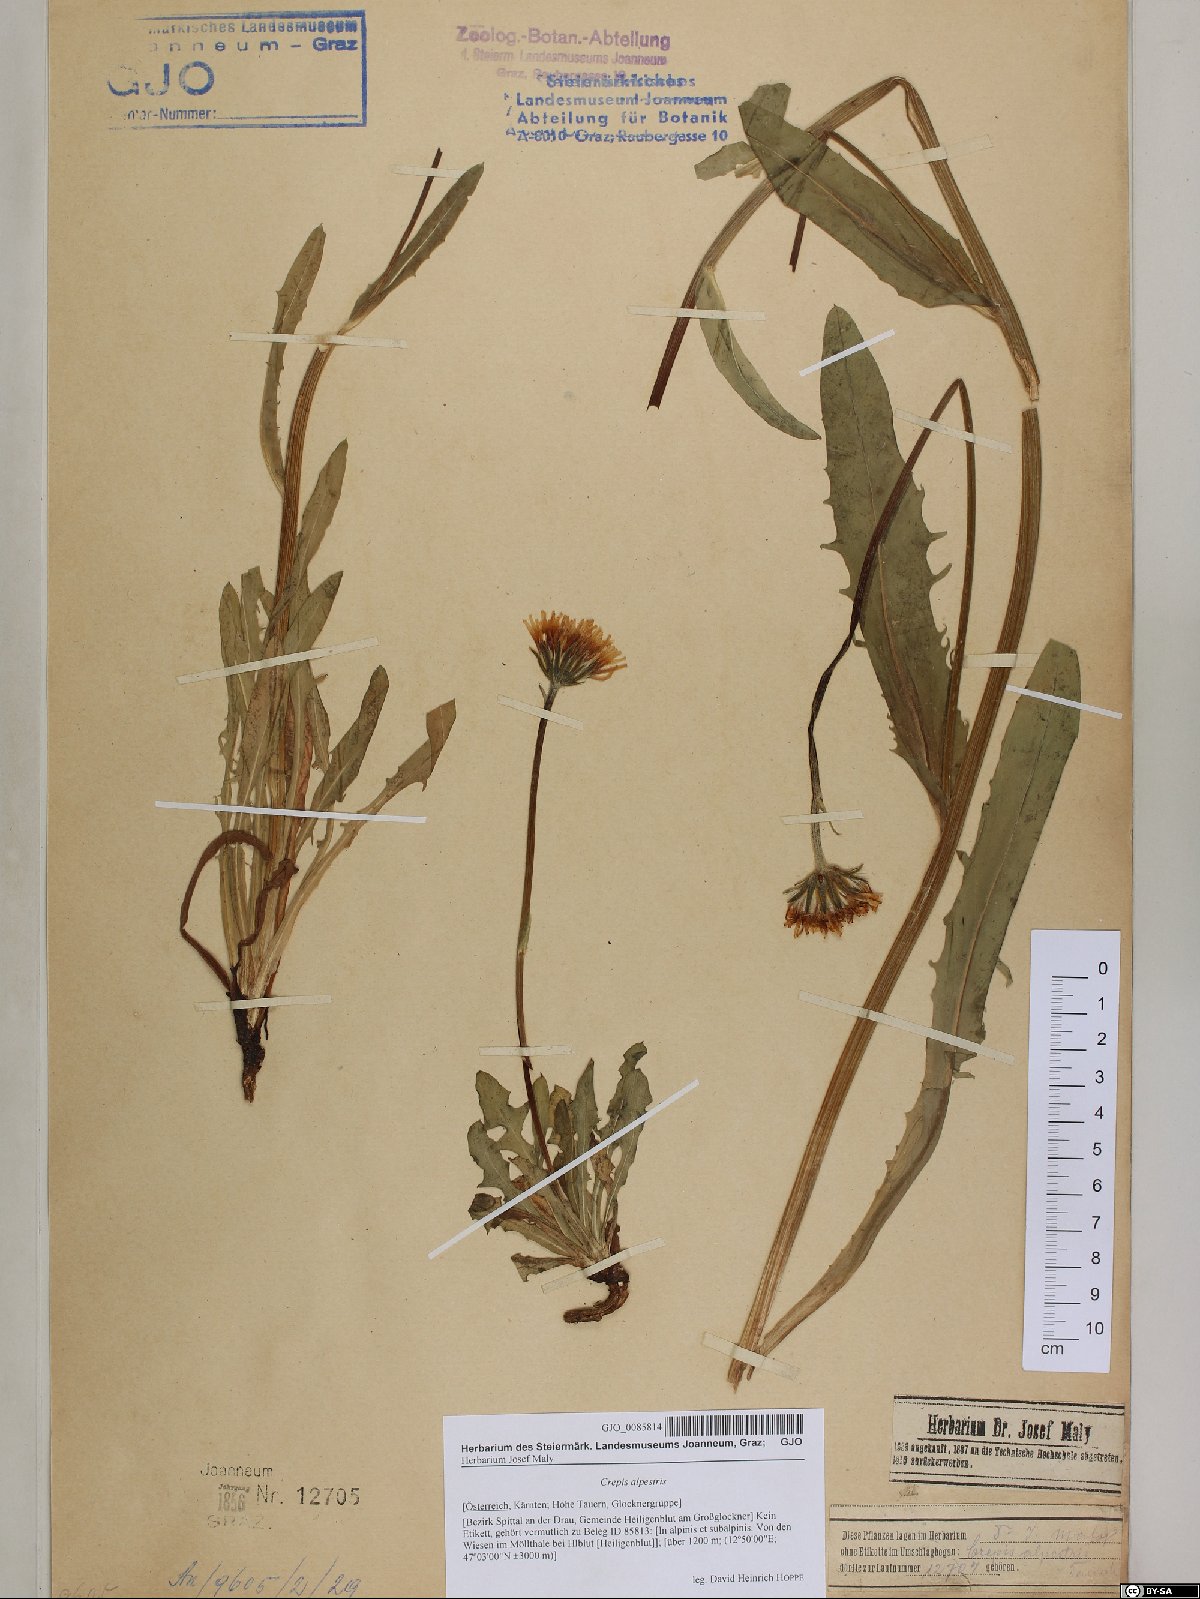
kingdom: Plantae
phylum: Tracheophyta
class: Magnoliopsida
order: Asterales
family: Asteraceae
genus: Crepis
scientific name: Crepis alpestris
